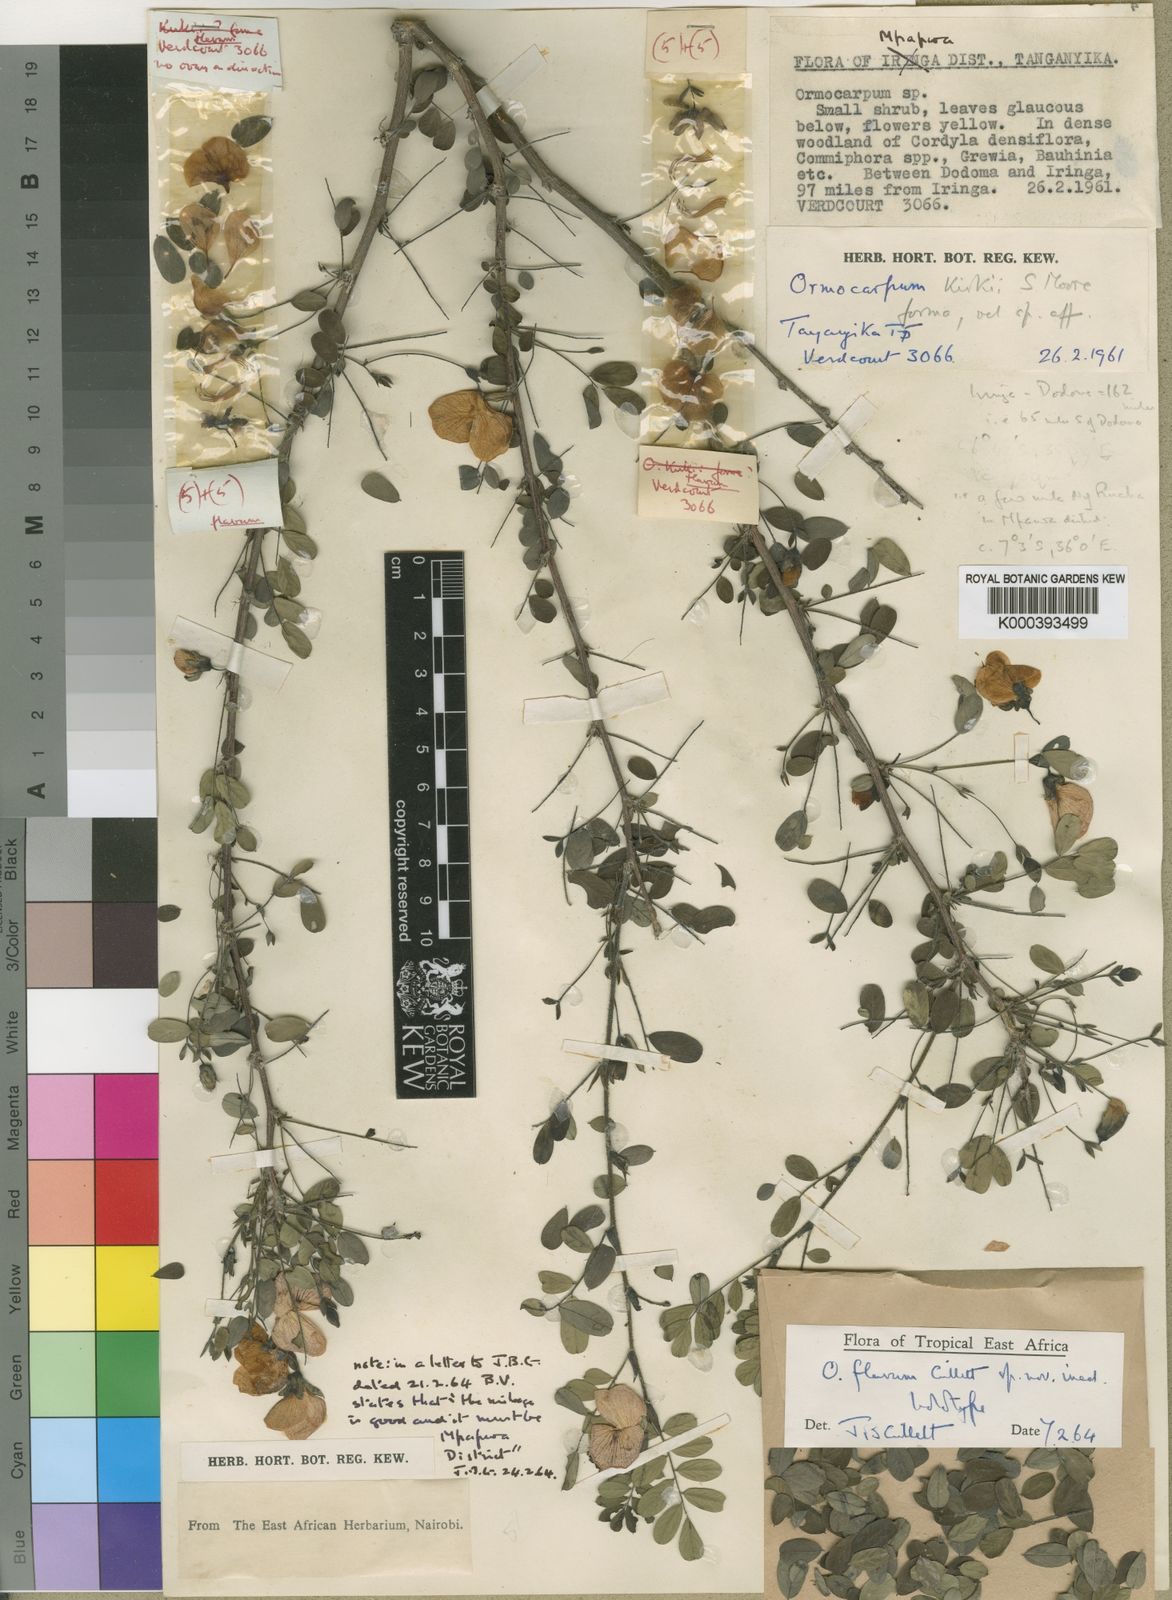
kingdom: Plantae
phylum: Tracheophyta
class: Magnoliopsida
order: Fabales
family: Fabaceae
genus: Ormocarpum
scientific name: Ormocarpum flavum
